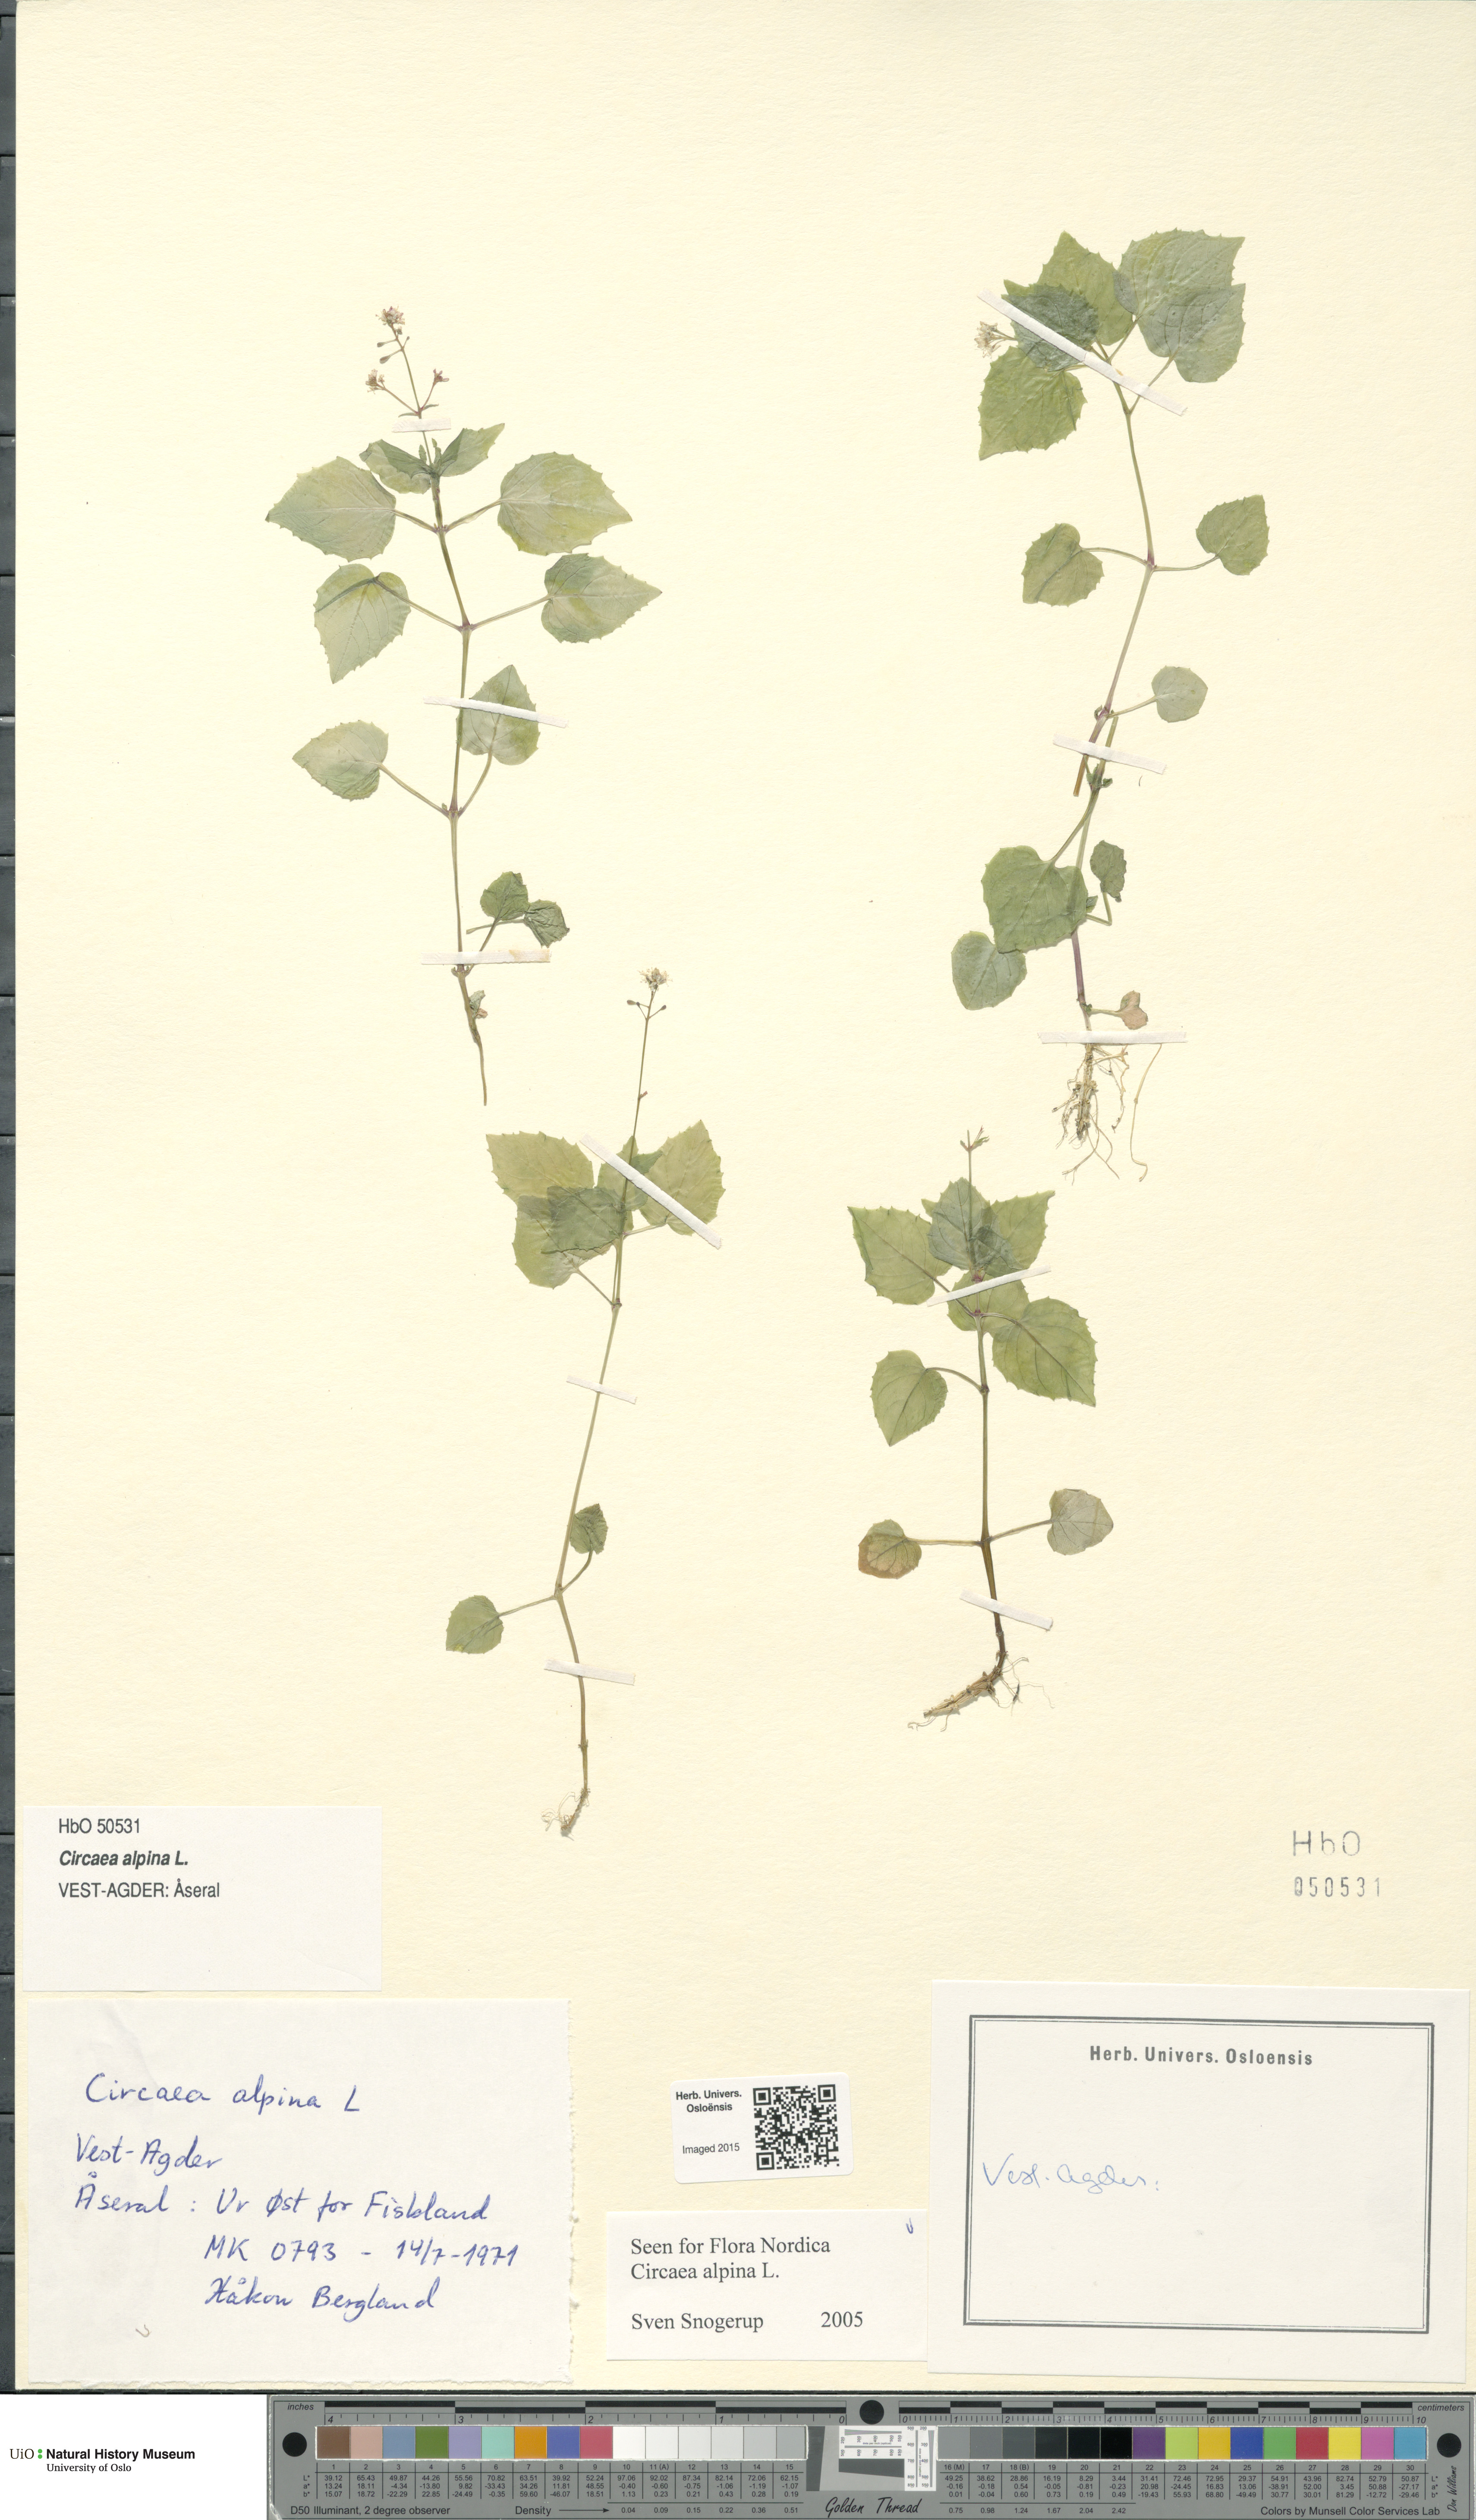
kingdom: Plantae
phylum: Tracheophyta
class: Magnoliopsida
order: Myrtales
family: Onagraceae
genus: Circaea
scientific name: Circaea alpina
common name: Alpine enchanter's-nightshade
